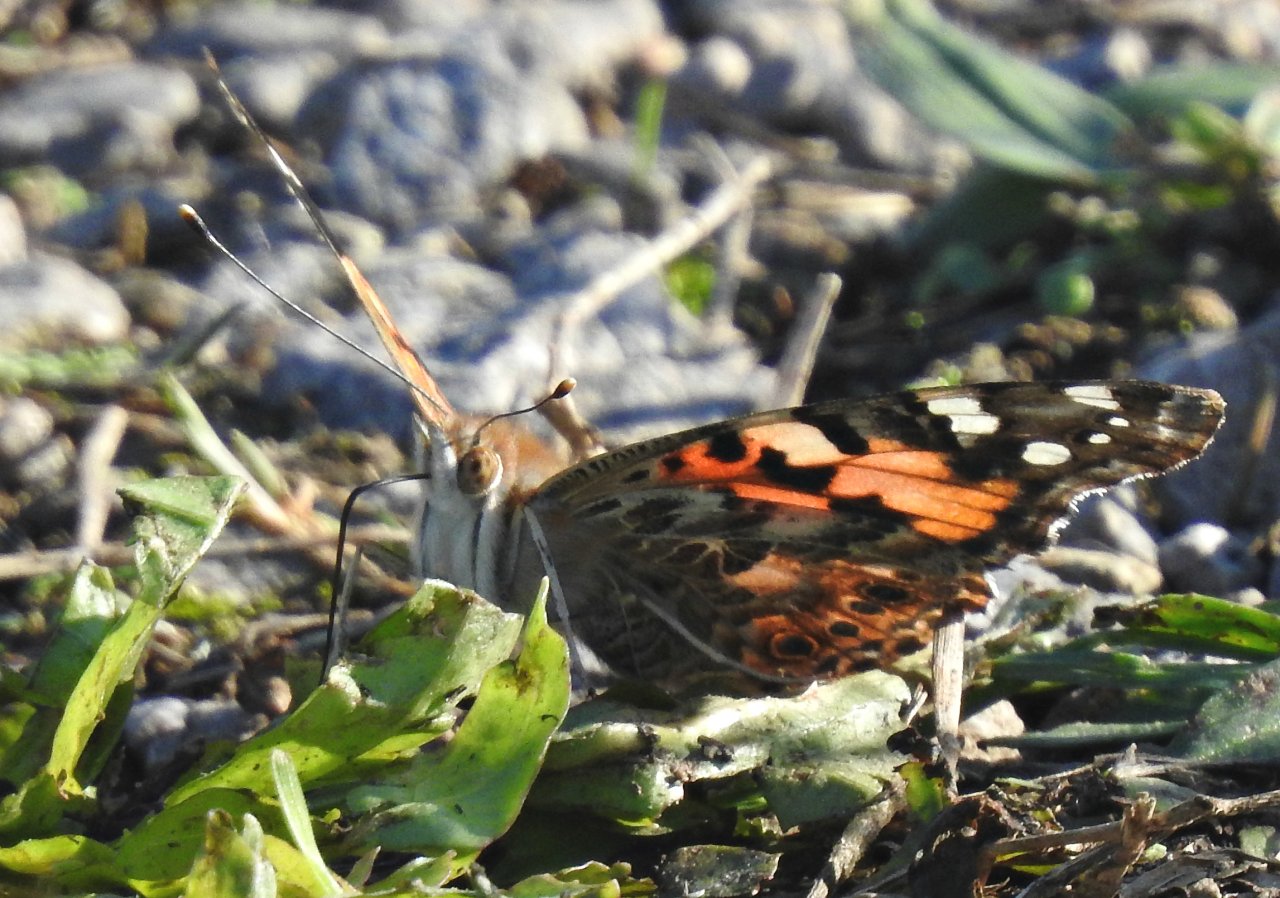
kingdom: Animalia
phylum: Arthropoda
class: Insecta
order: Lepidoptera
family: Nymphalidae
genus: Vanessa
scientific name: Vanessa cardui
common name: Painted Lady
